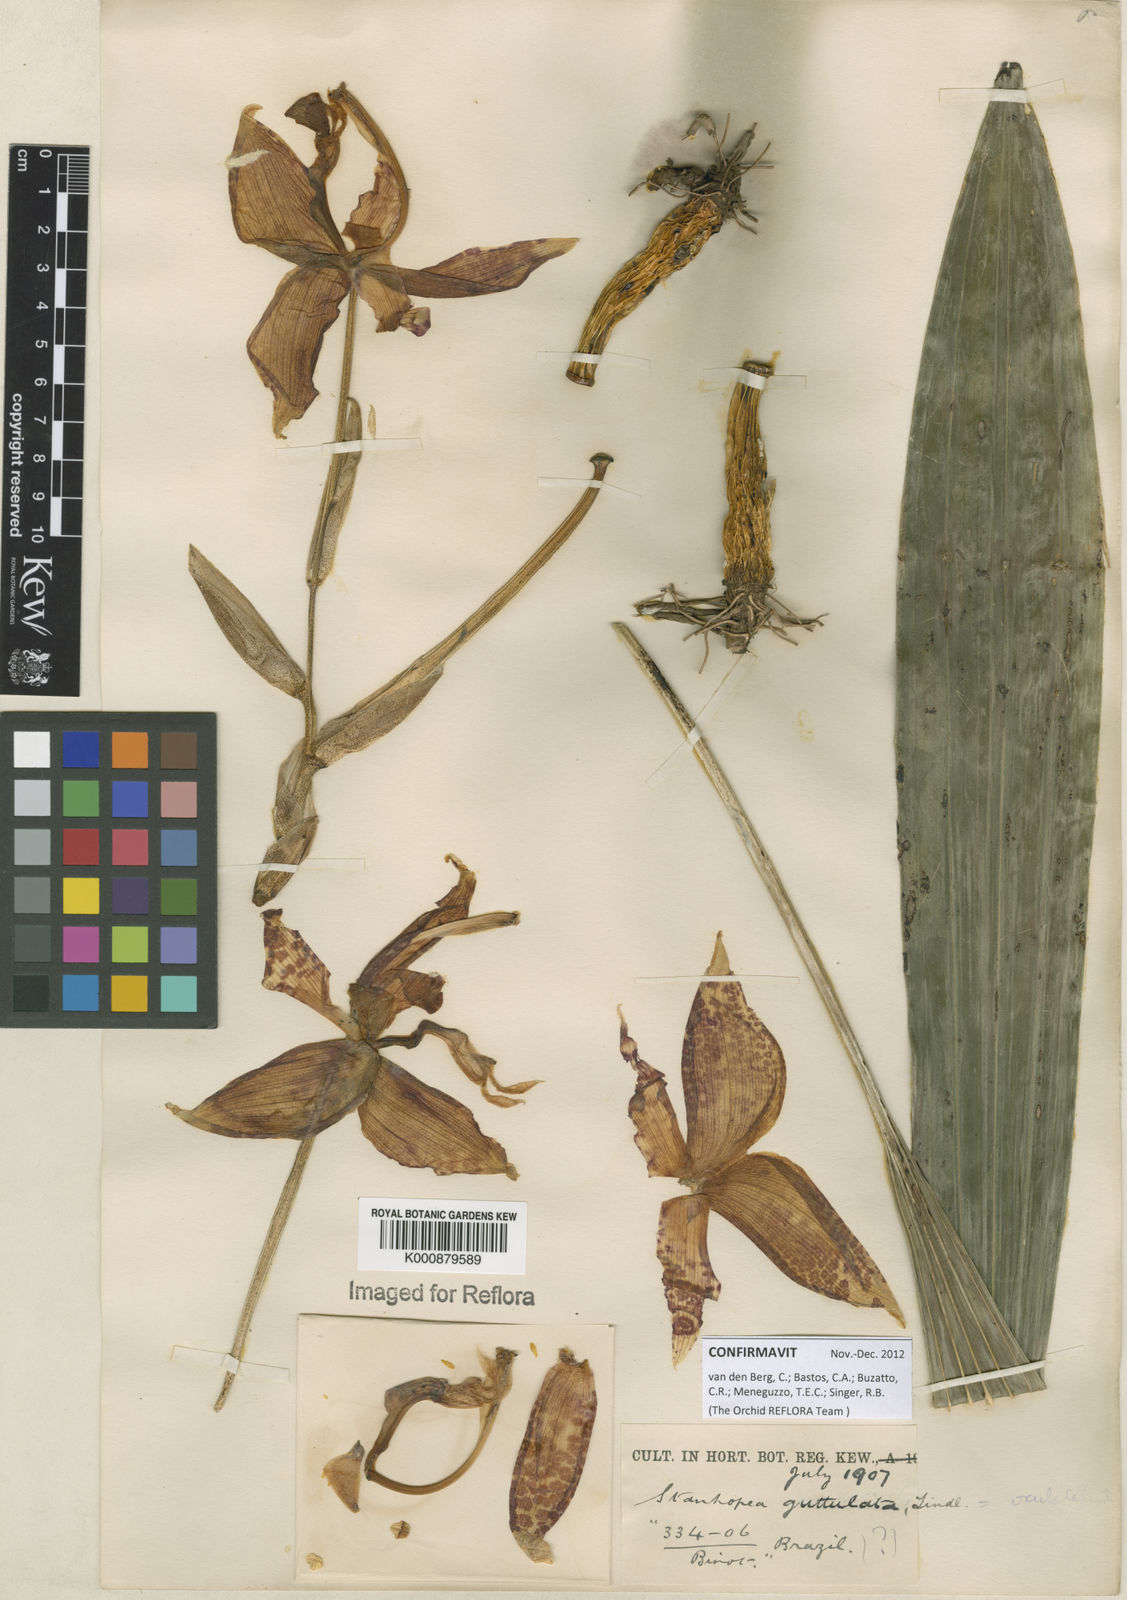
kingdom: Plantae
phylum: Tracheophyta
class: Liliopsida
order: Asparagales
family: Orchidaceae
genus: Stanhopea
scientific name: Stanhopea guttulata
